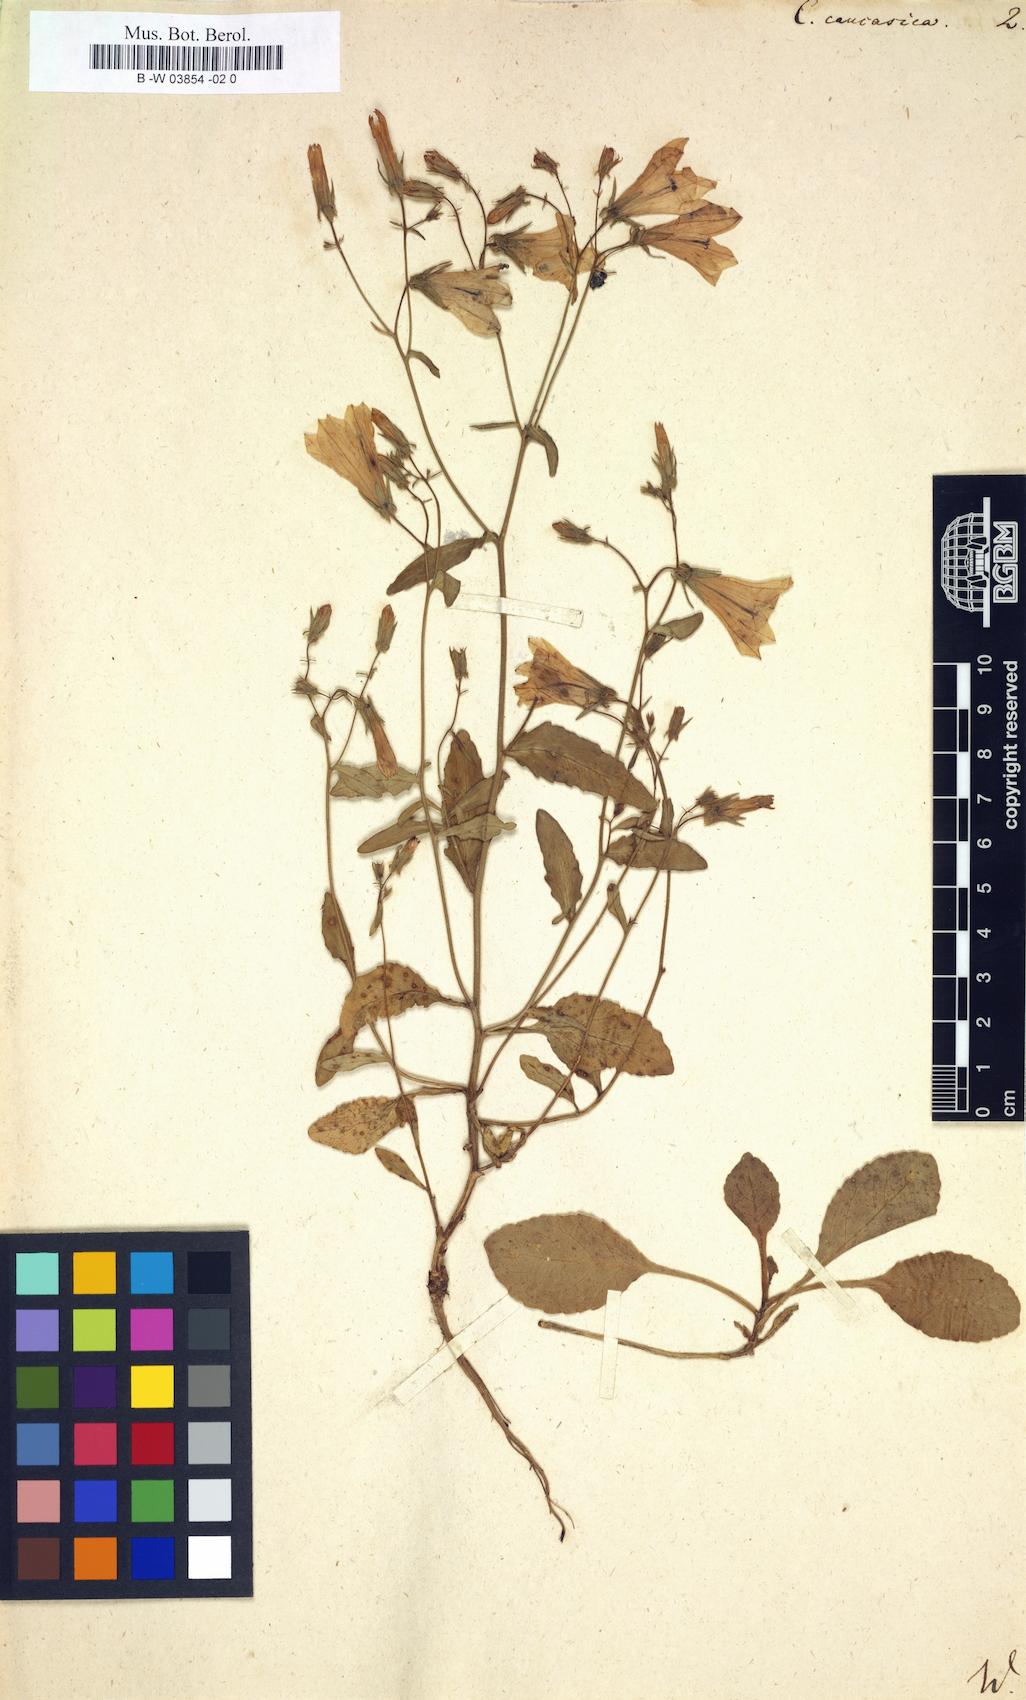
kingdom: Plantae
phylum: Tracheophyta
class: Magnoliopsida
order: Asterales
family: Campanulaceae
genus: Campanula
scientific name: Campanula caucasica
